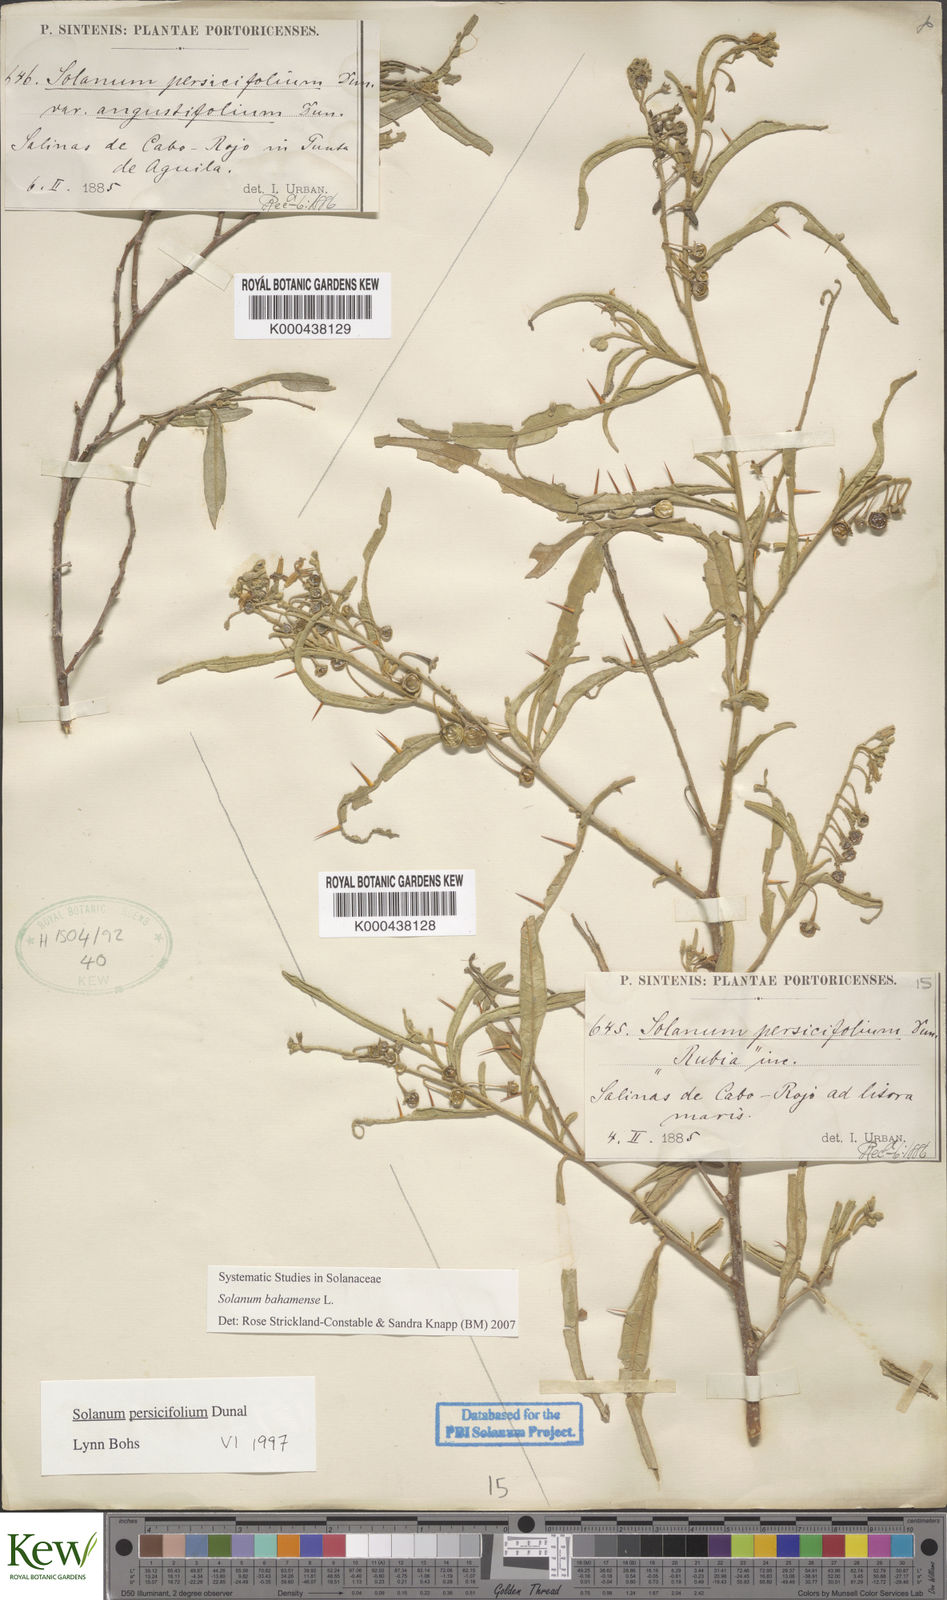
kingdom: Plantae
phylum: Tracheophyta
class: Magnoliopsida
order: Solanales
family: Solanaceae
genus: Solanum
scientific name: Solanum bahamense
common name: Canker-berry
